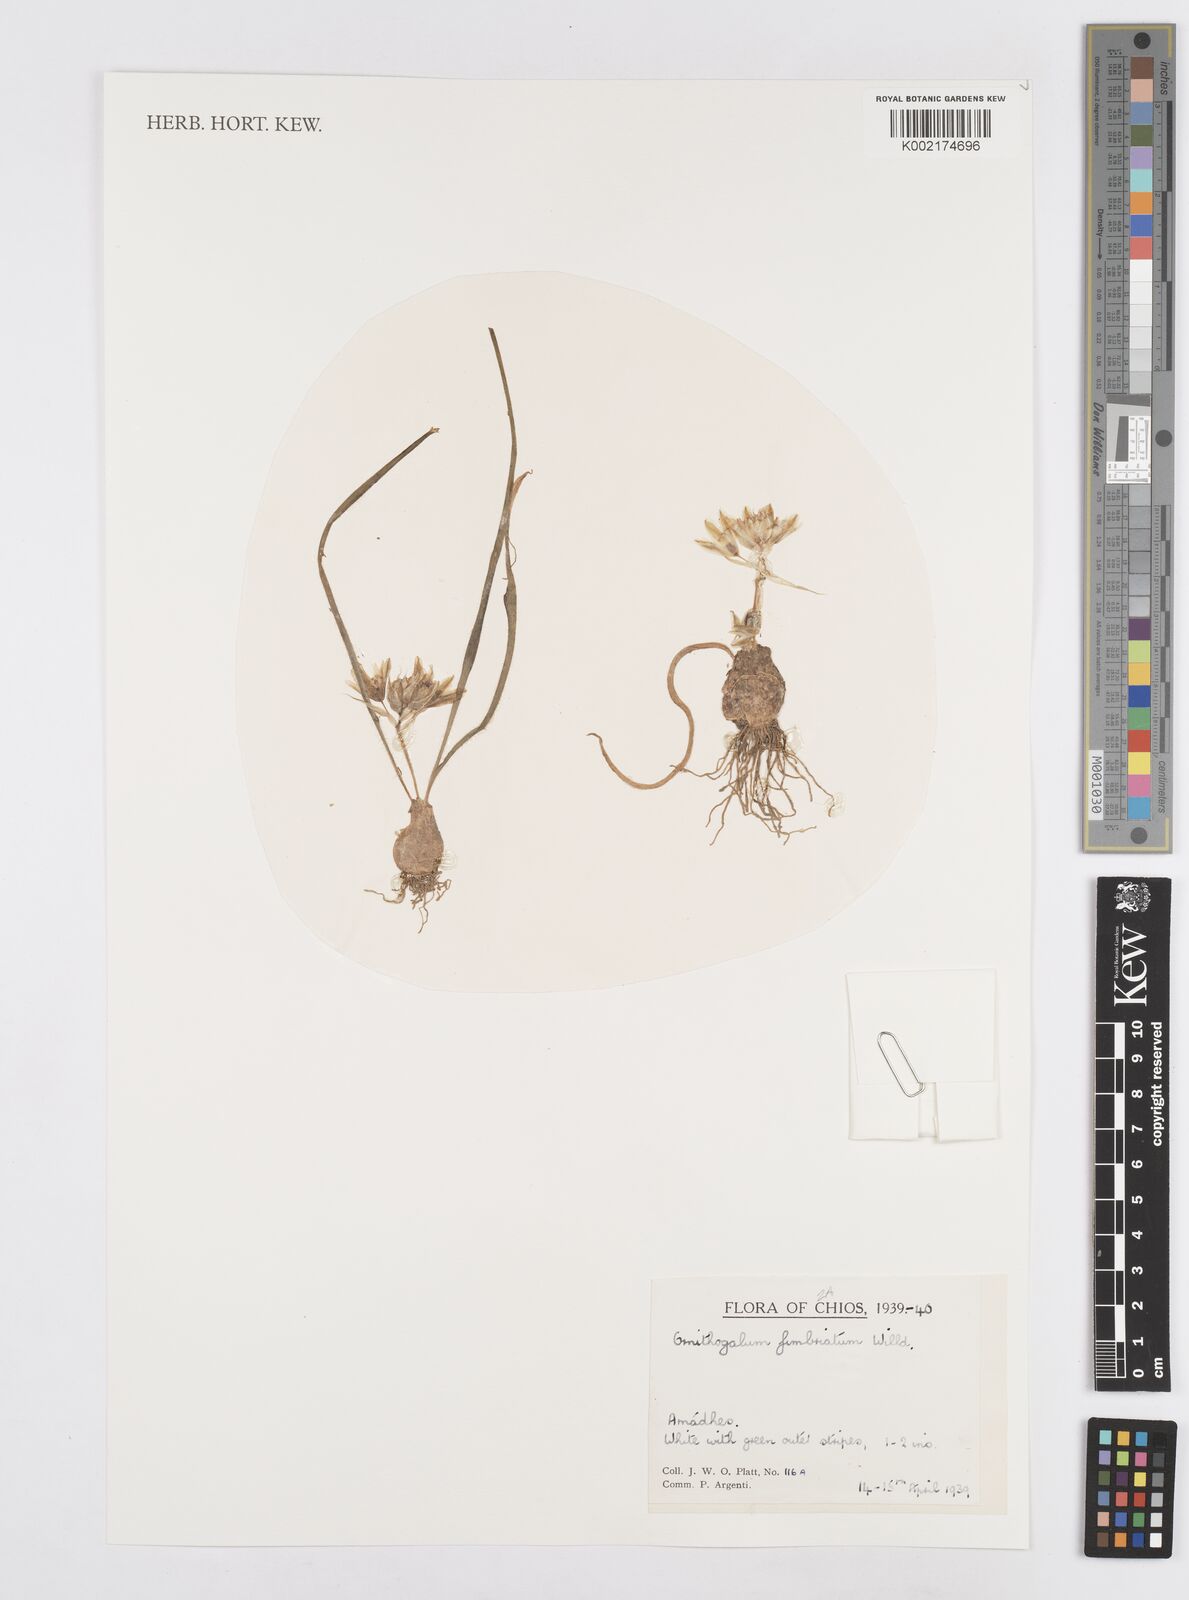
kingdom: Plantae
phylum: Tracheophyta
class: Liliopsida
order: Asparagales
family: Asparagaceae
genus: Ornithogalum
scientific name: Ornithogalum fimbriatum
